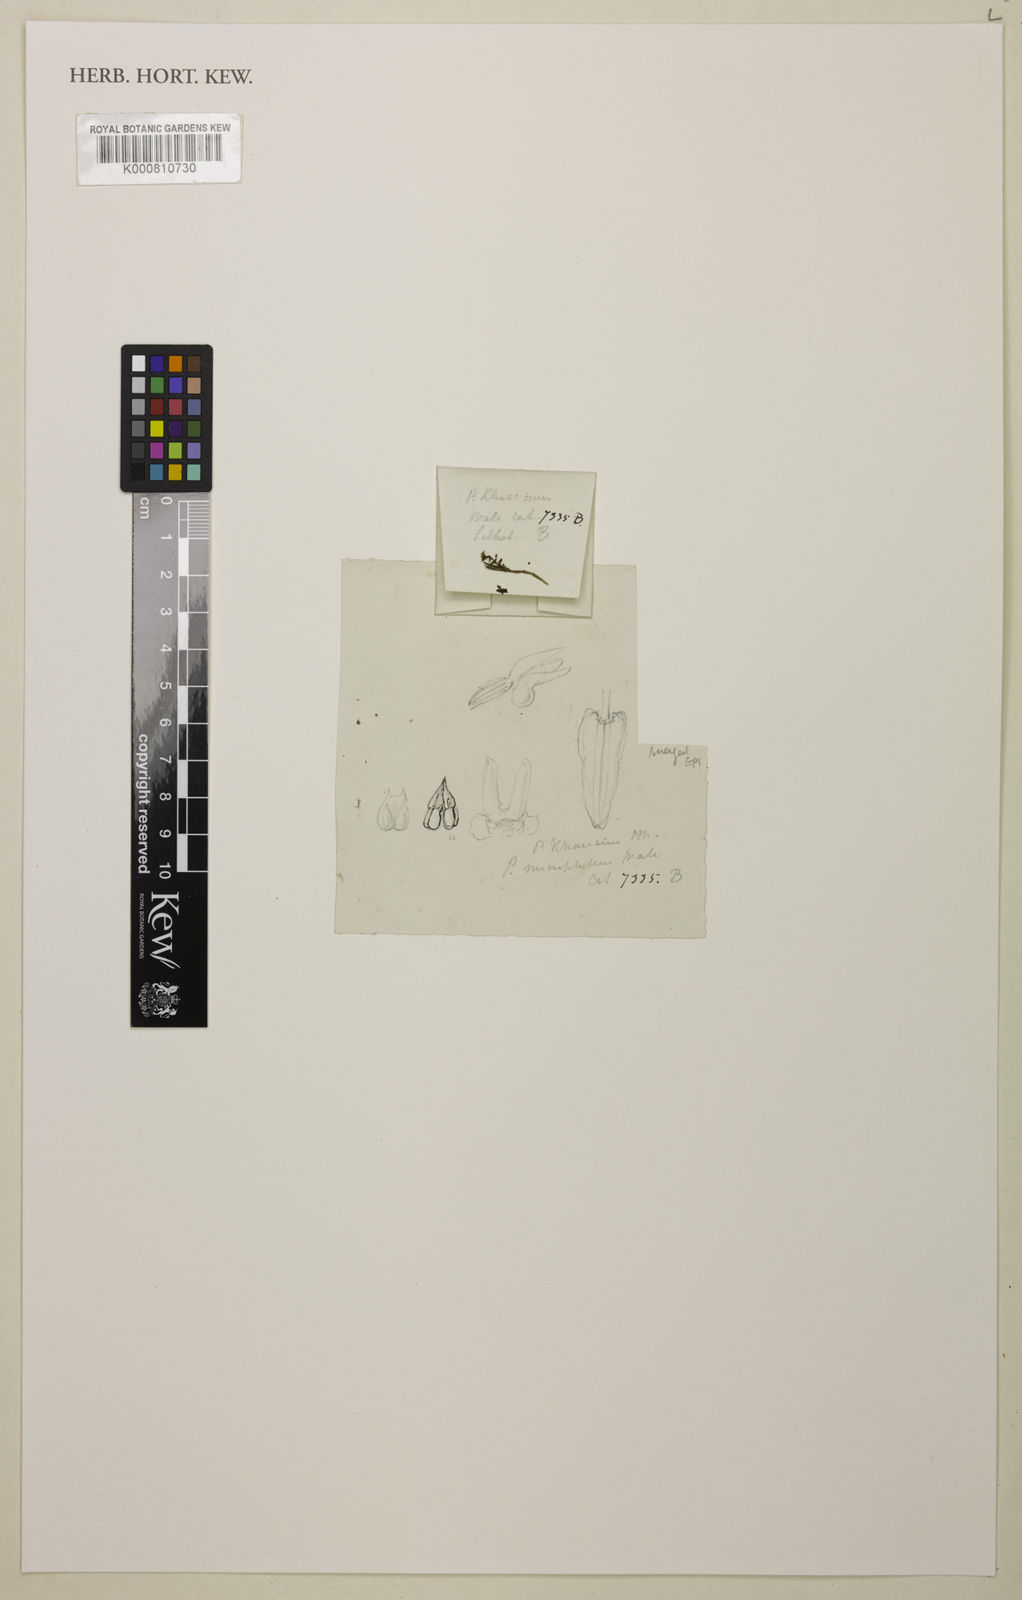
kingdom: Plantae
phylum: Tracheophyta
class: Liliopsida
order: Asparagales
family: Orchidaceae
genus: Podochilus
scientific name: Podochilus microphyllus
